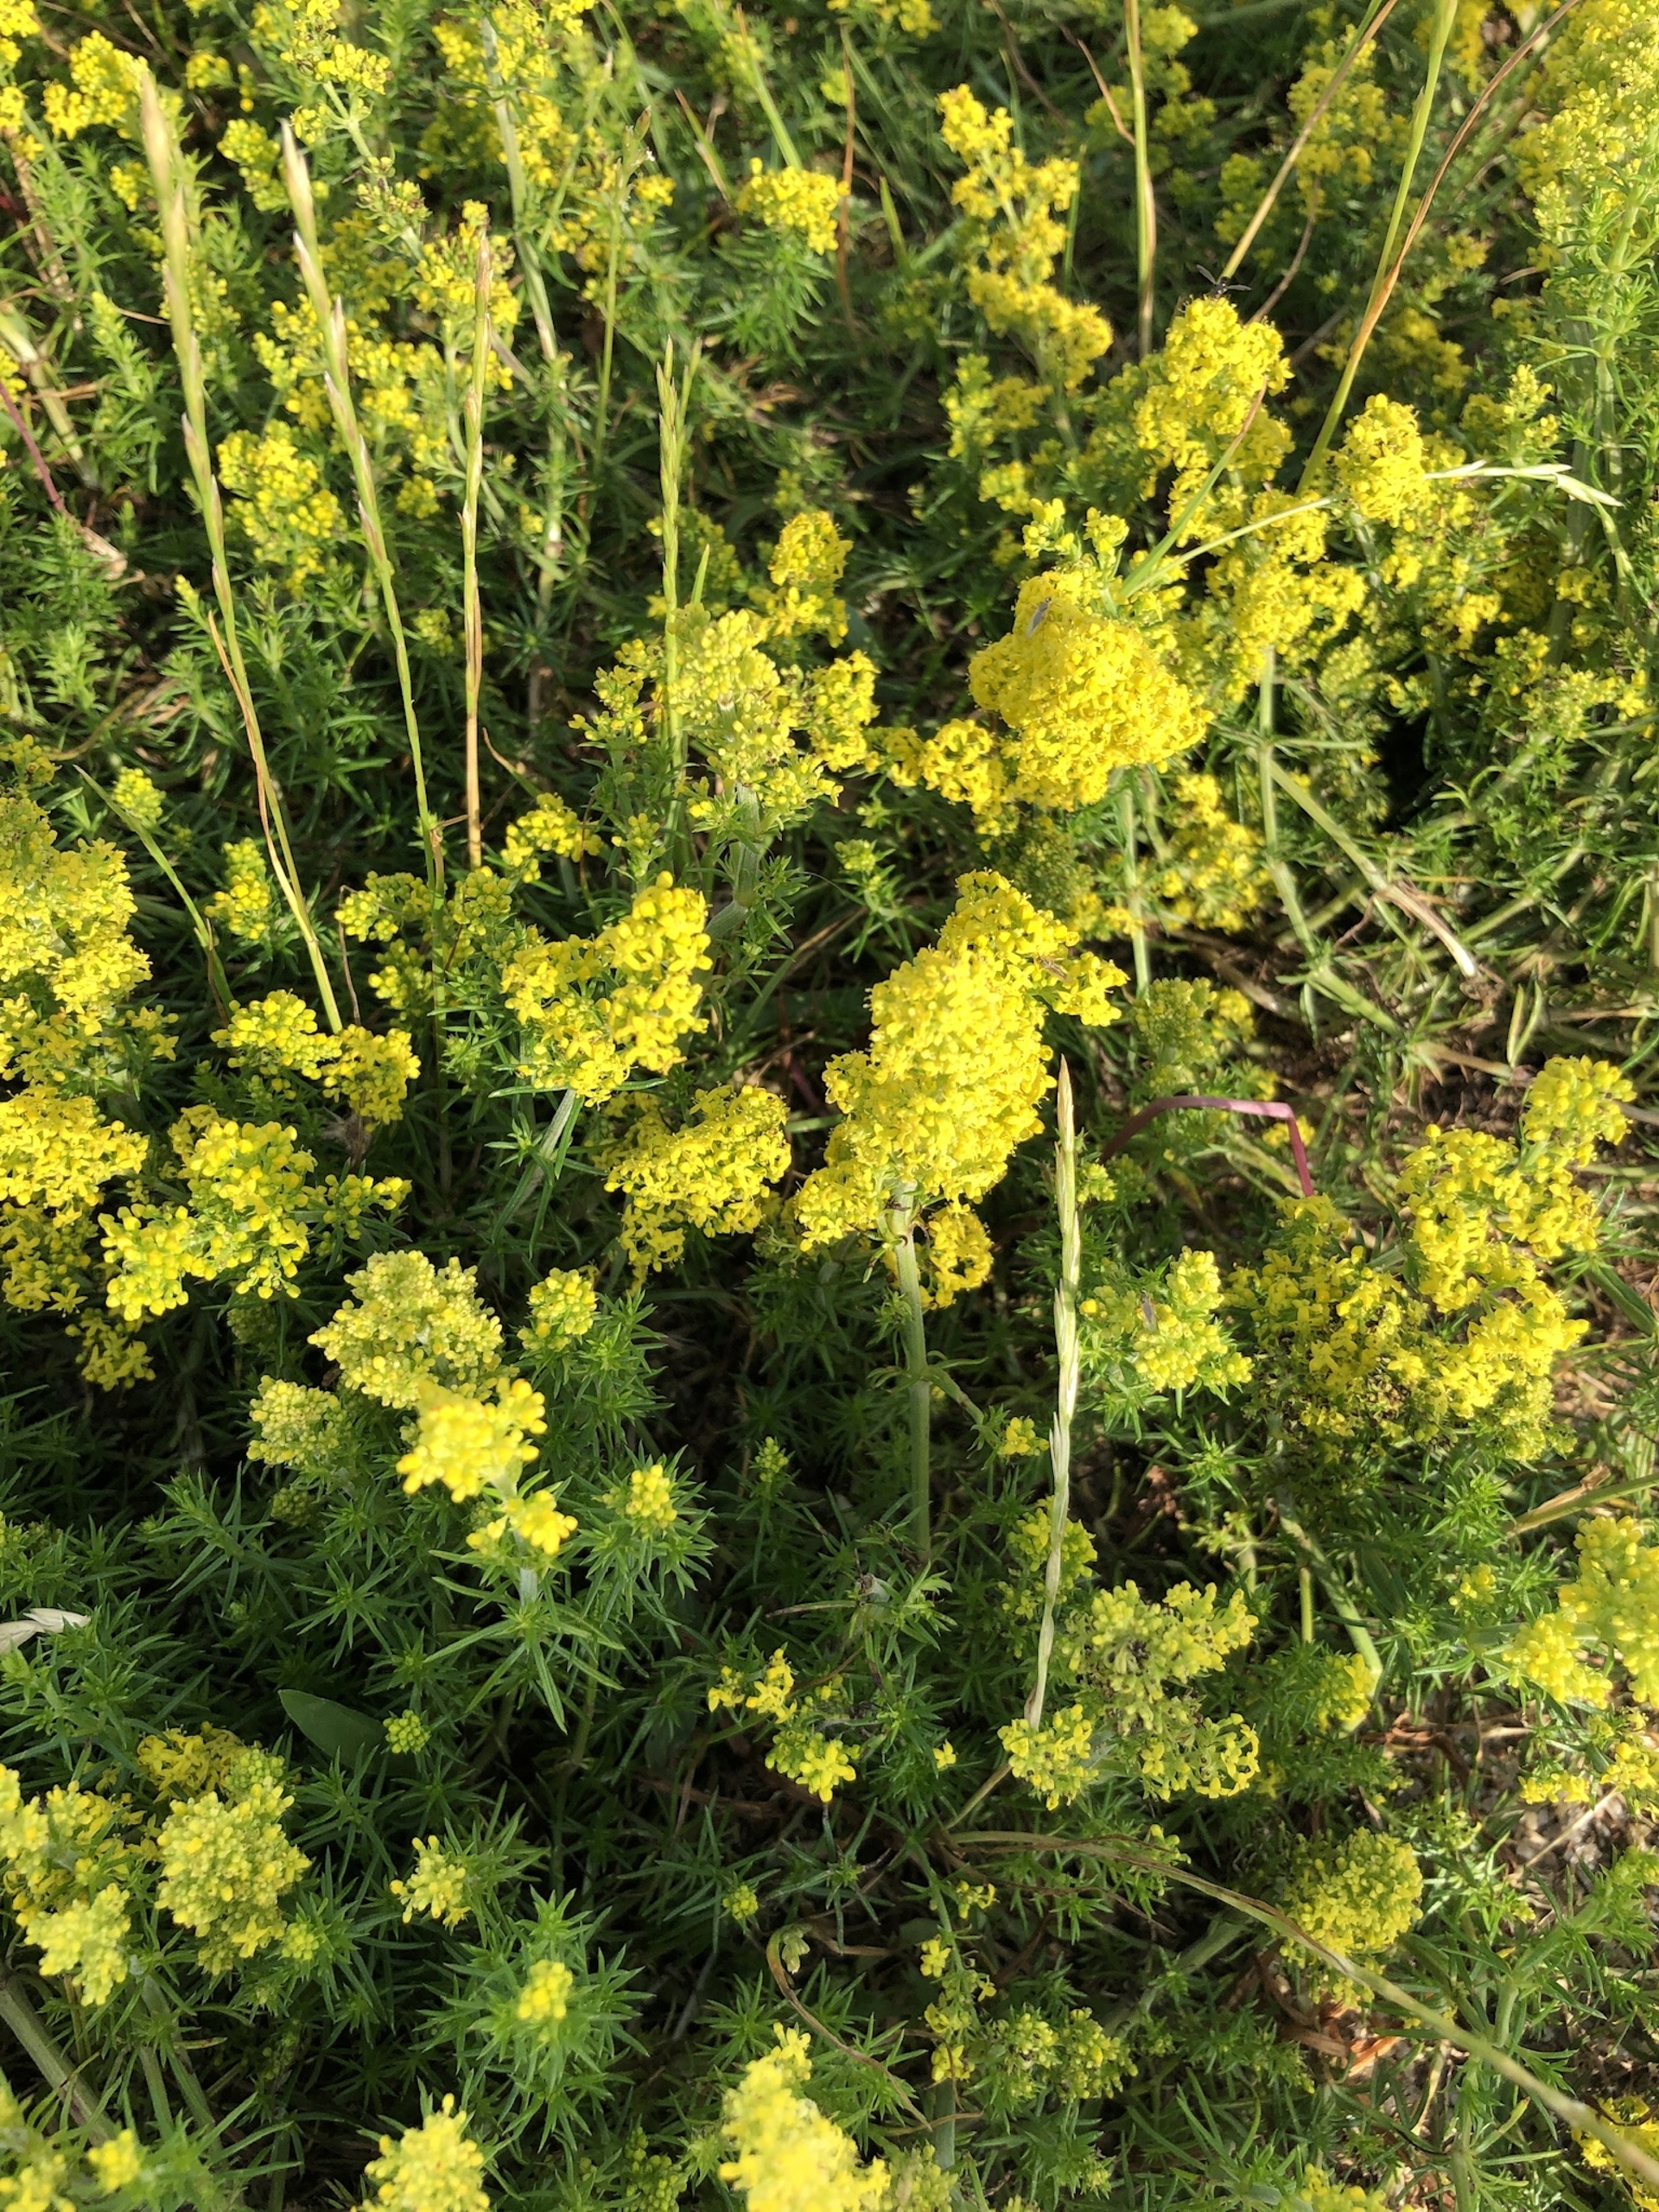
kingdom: Plantae
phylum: Tracheophyta
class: Magnoliopsida
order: Gentianales
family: Rubiaceae
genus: Galium
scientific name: Galium verum
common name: Gul snerre
